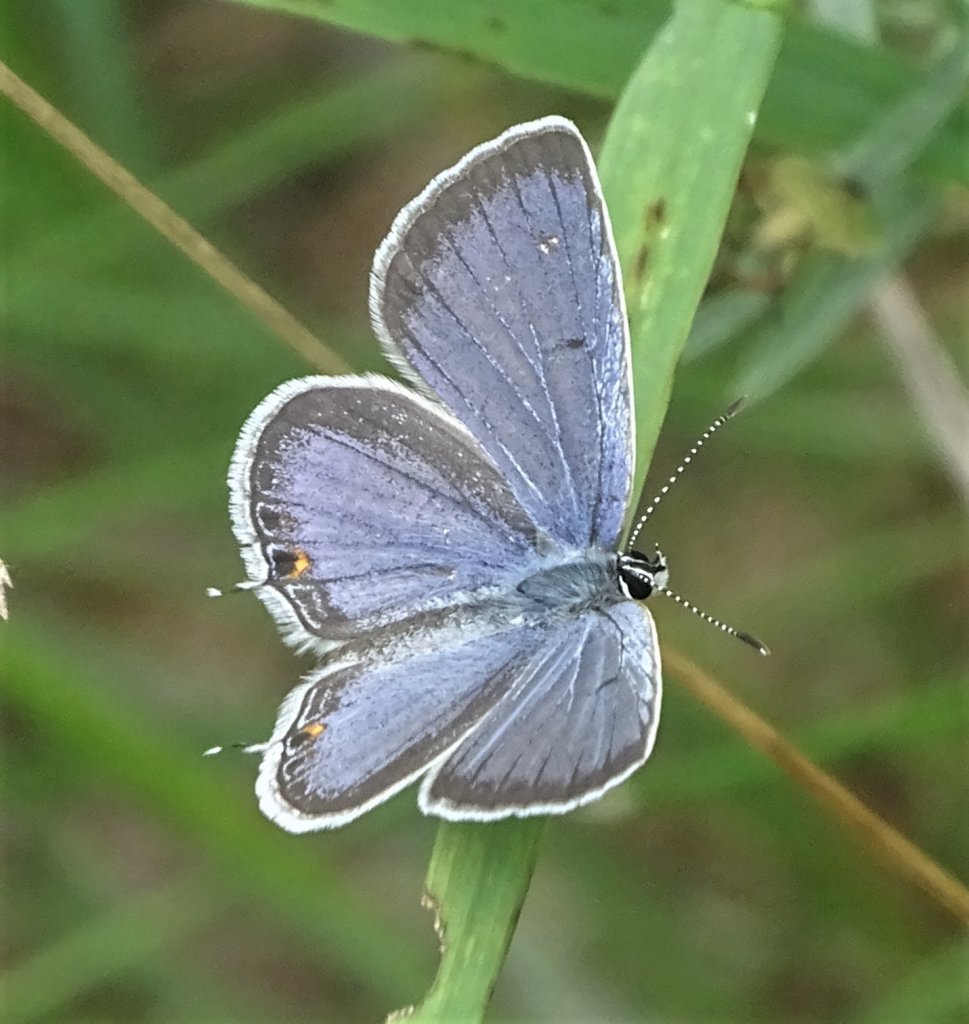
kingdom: Animalia
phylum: Arthropoda
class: Insecta
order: Lepidoptera
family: Lycaenidae
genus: Elkalyce
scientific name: Elkalyce comyntas
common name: Eastern Tailed-Blue
